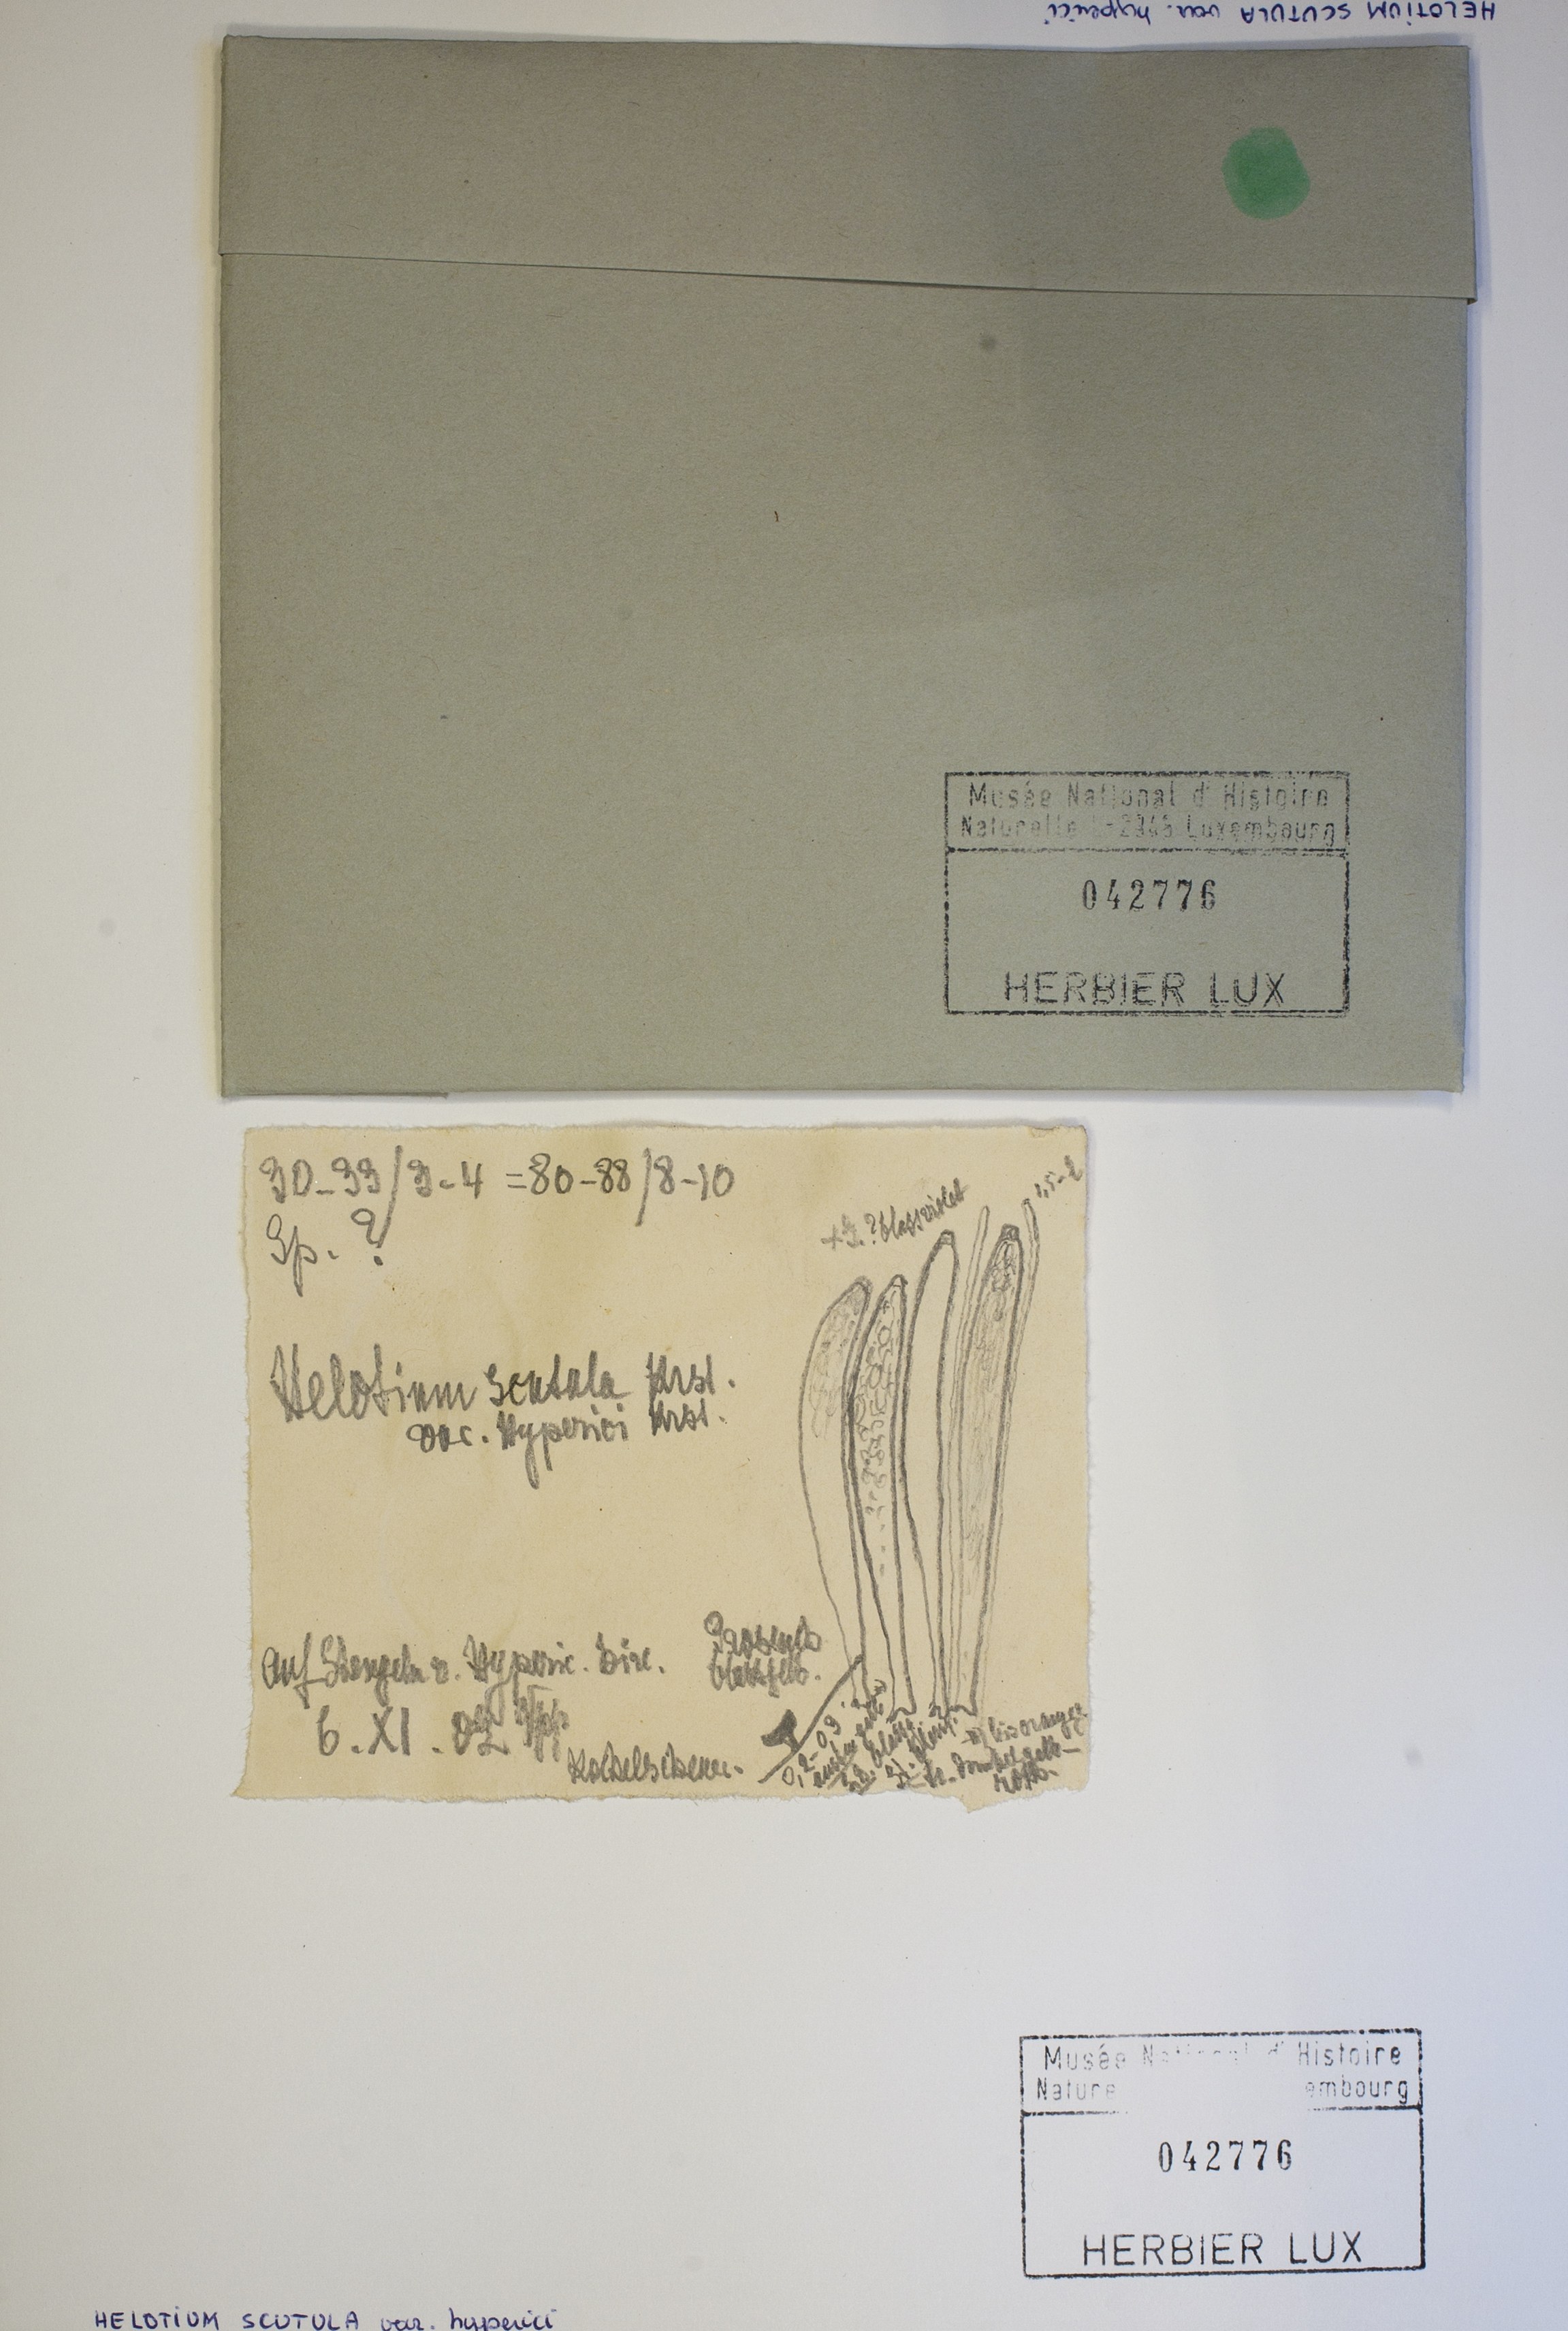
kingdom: Fungi
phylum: Ascomycota
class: Leotiomycetes
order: Helotiales
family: Helotiaceae
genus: Hymenoscyphus
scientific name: Hymenoscyphus scutula
